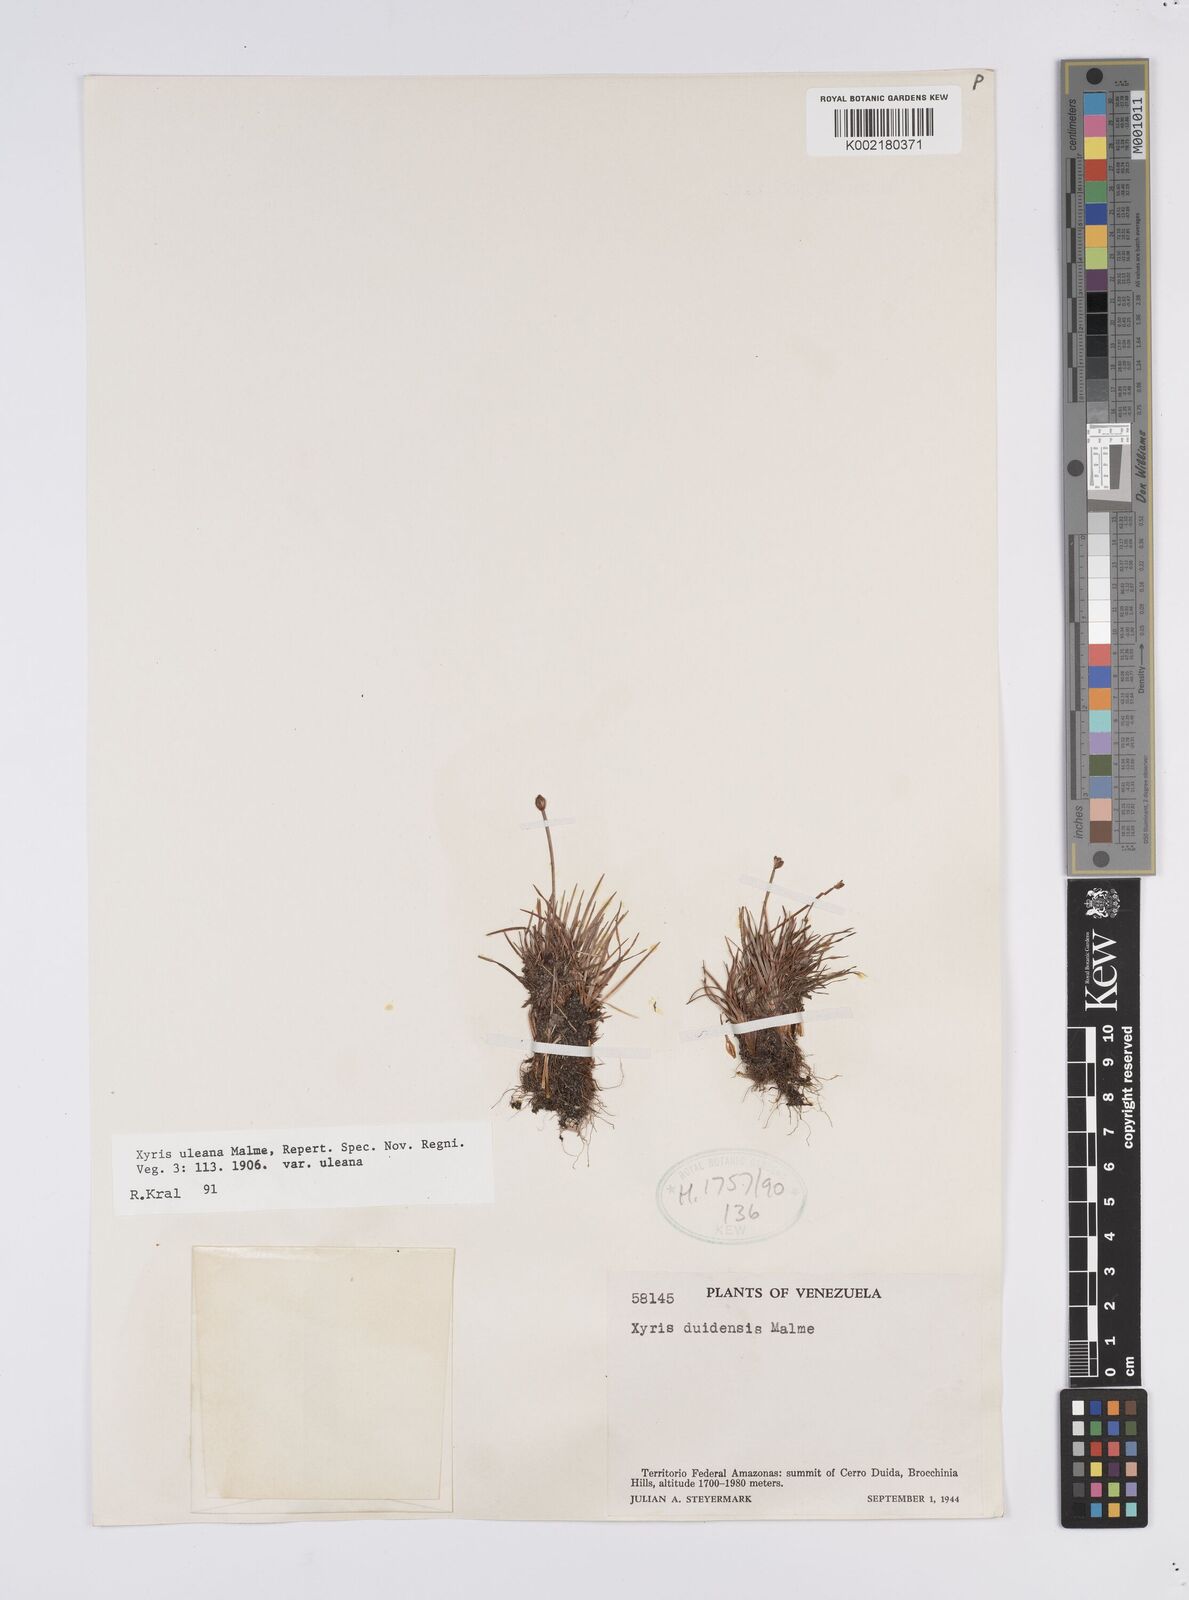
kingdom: Plantae
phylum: Tracheophyta
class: Liliopsida
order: Poales
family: Xyridaceae
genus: Xyris
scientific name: Xyris uleana
